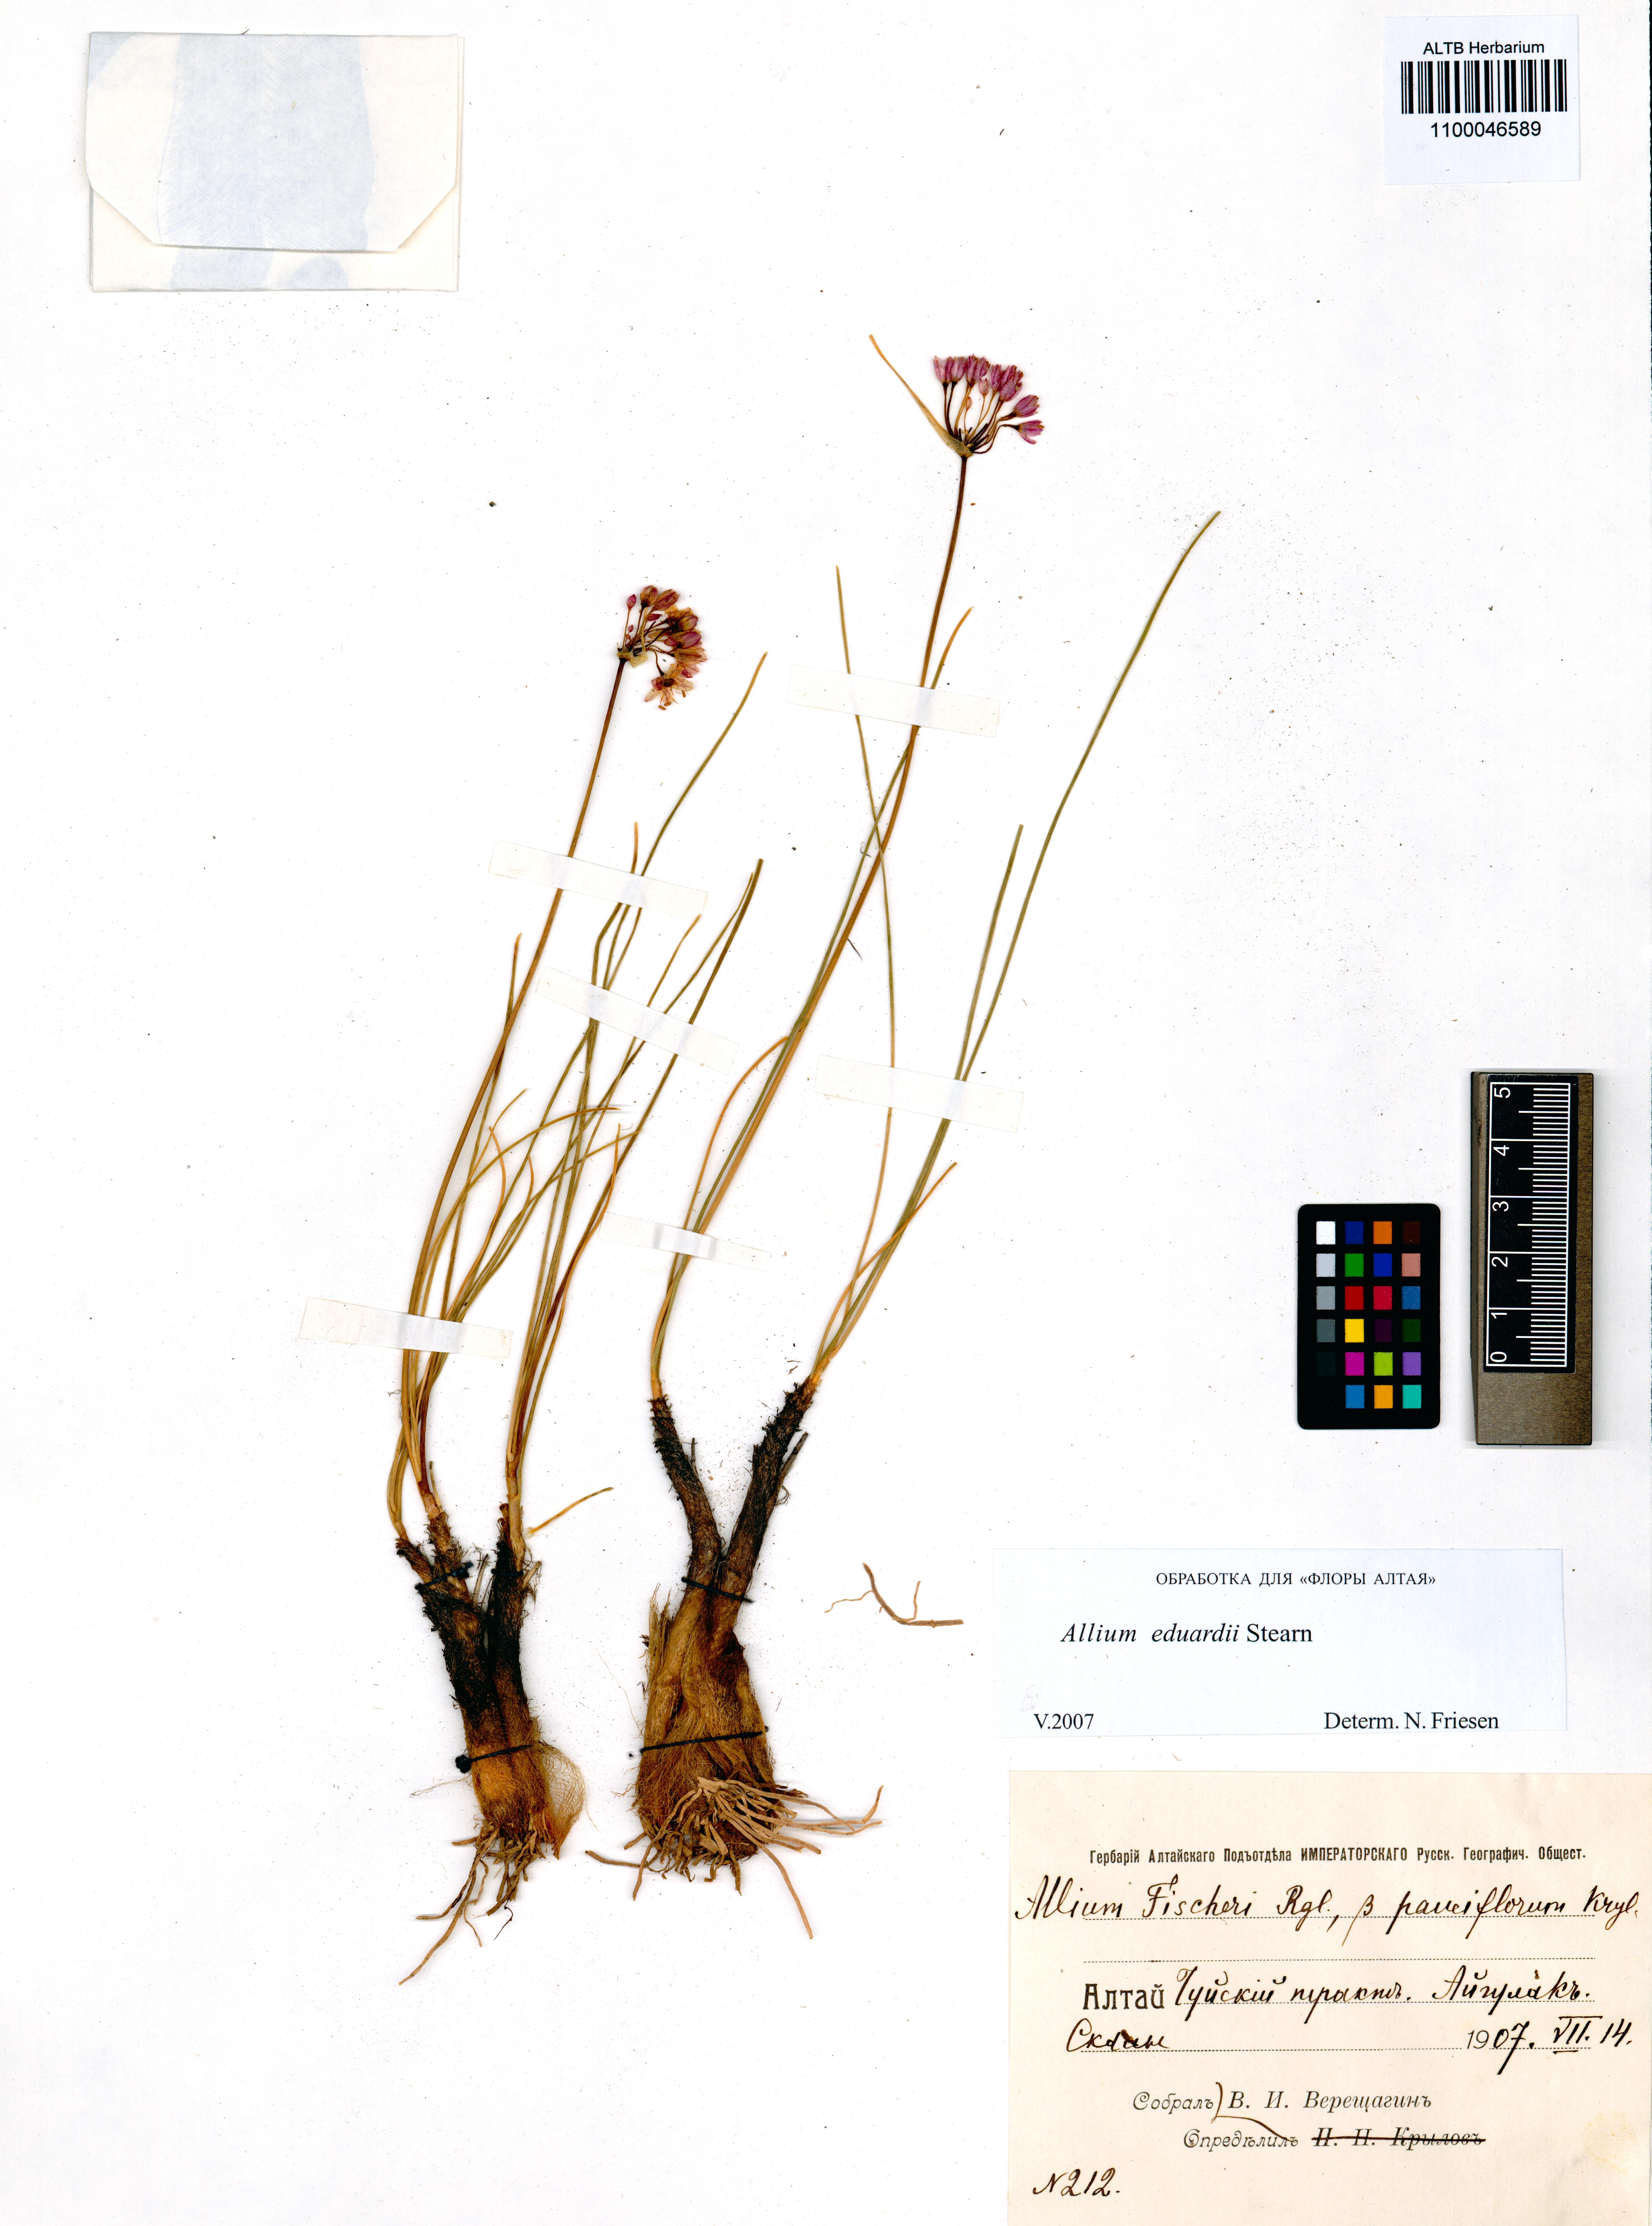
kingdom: Plantae
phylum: Tracheophyta
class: Liliopsida
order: Asparagales
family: Amaryllidaceae
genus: Allium
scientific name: Allium eduardi
